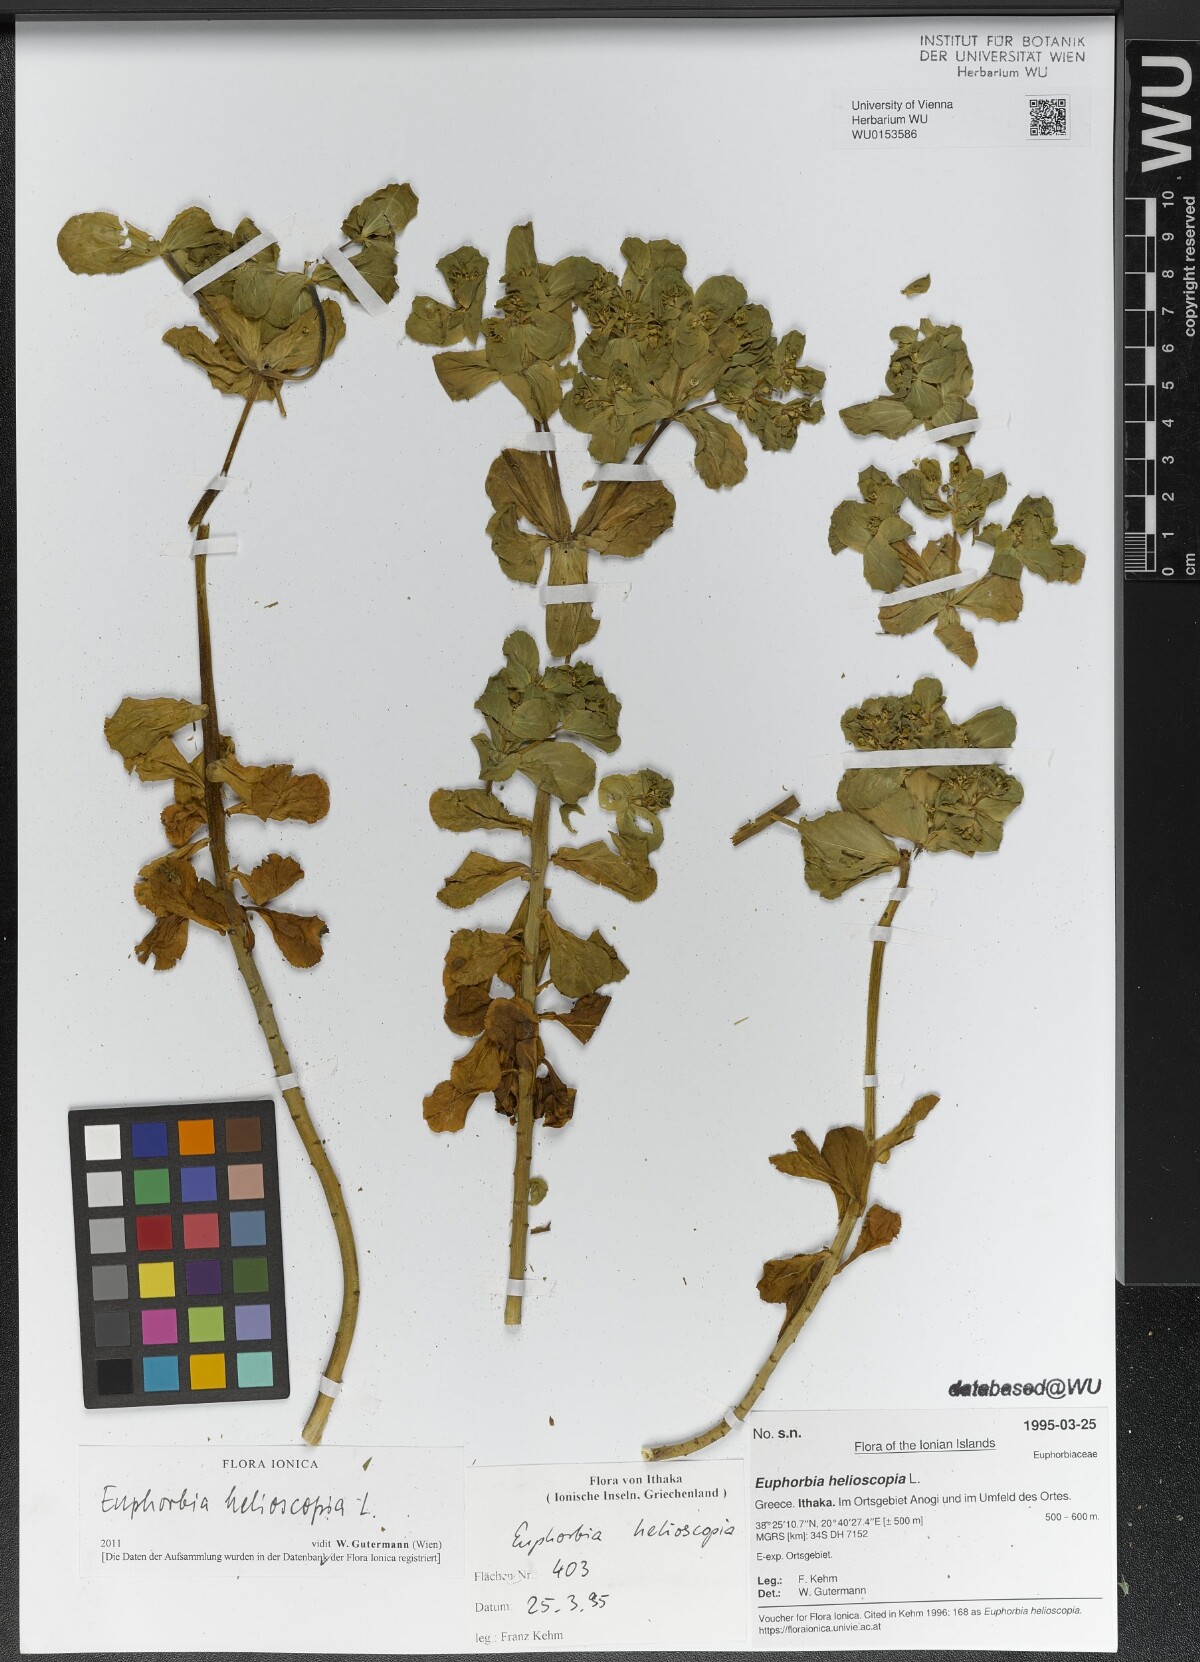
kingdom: Plantae
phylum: Tracheophyta
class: Magnoliopsida
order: Malpighiales
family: Euphorbiaceae
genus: Euphorbia
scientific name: Euphorbia helioscopia
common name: Sun spurge
